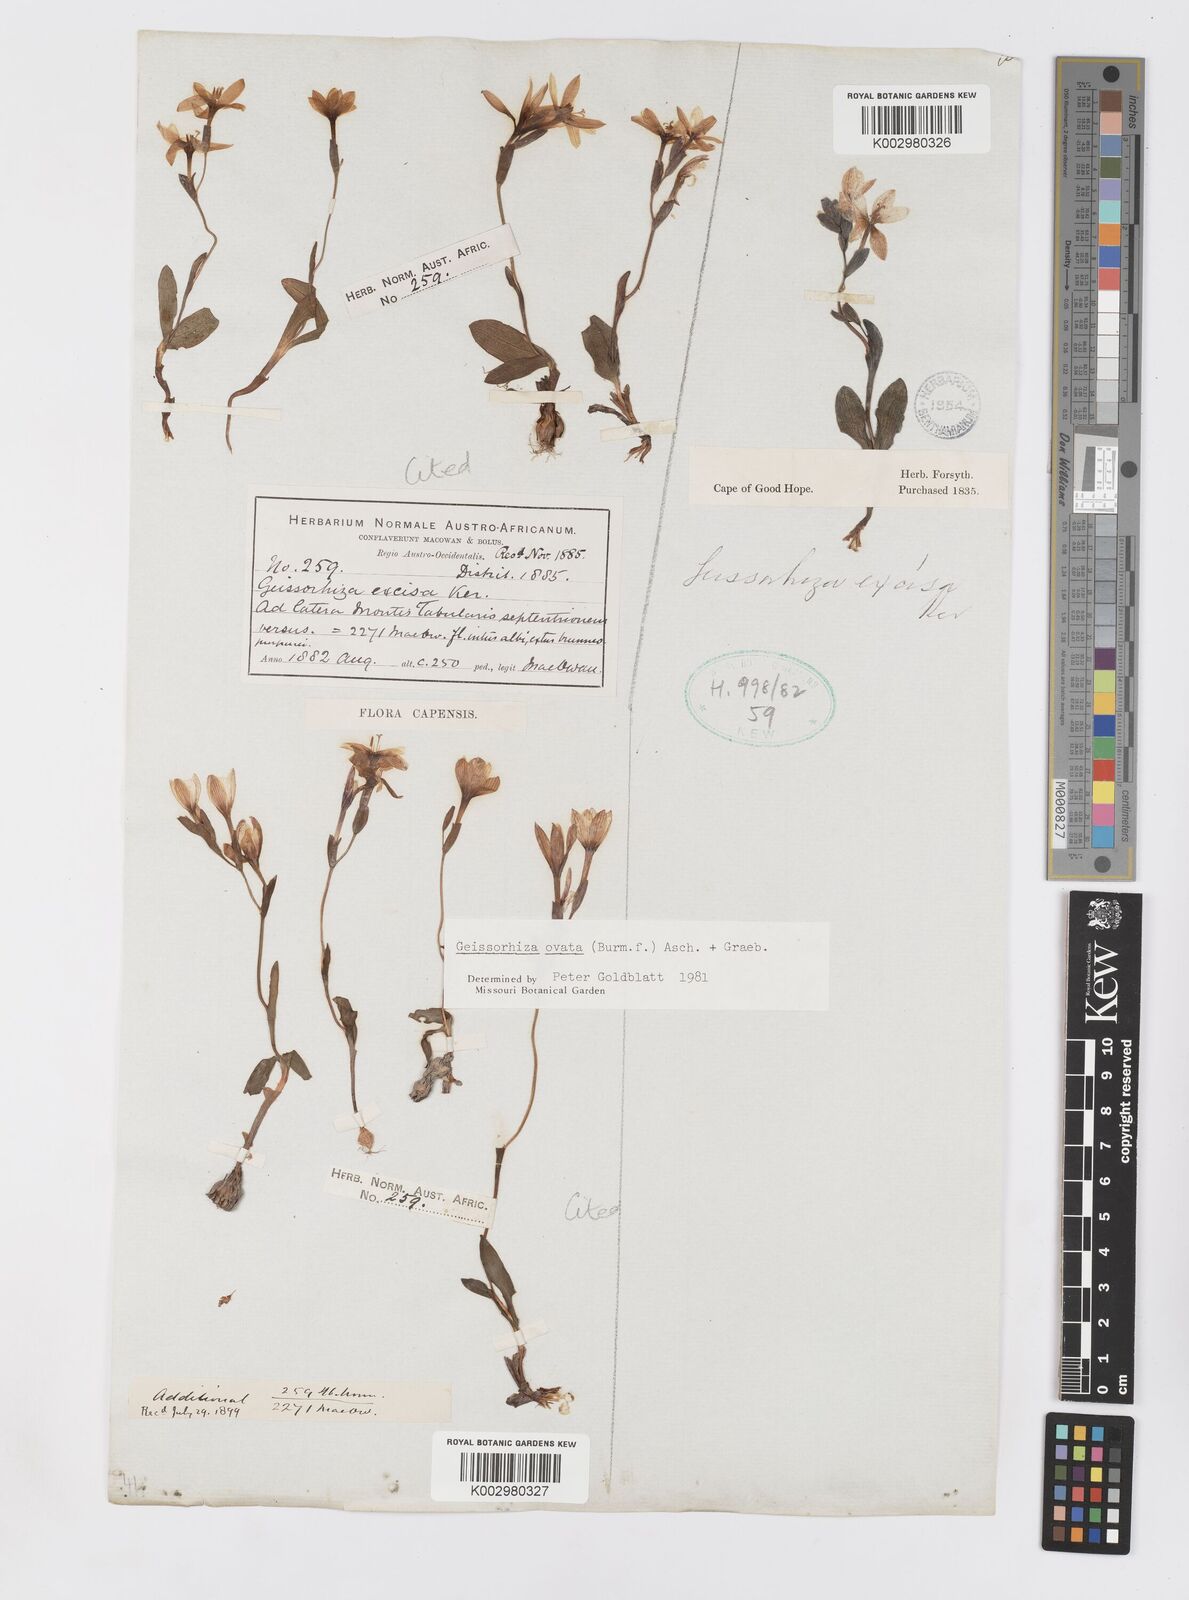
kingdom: Plantae
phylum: Tracheophyta
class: Liliopsida
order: Asparagales
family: Iridaceae
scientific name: Iridaceae
